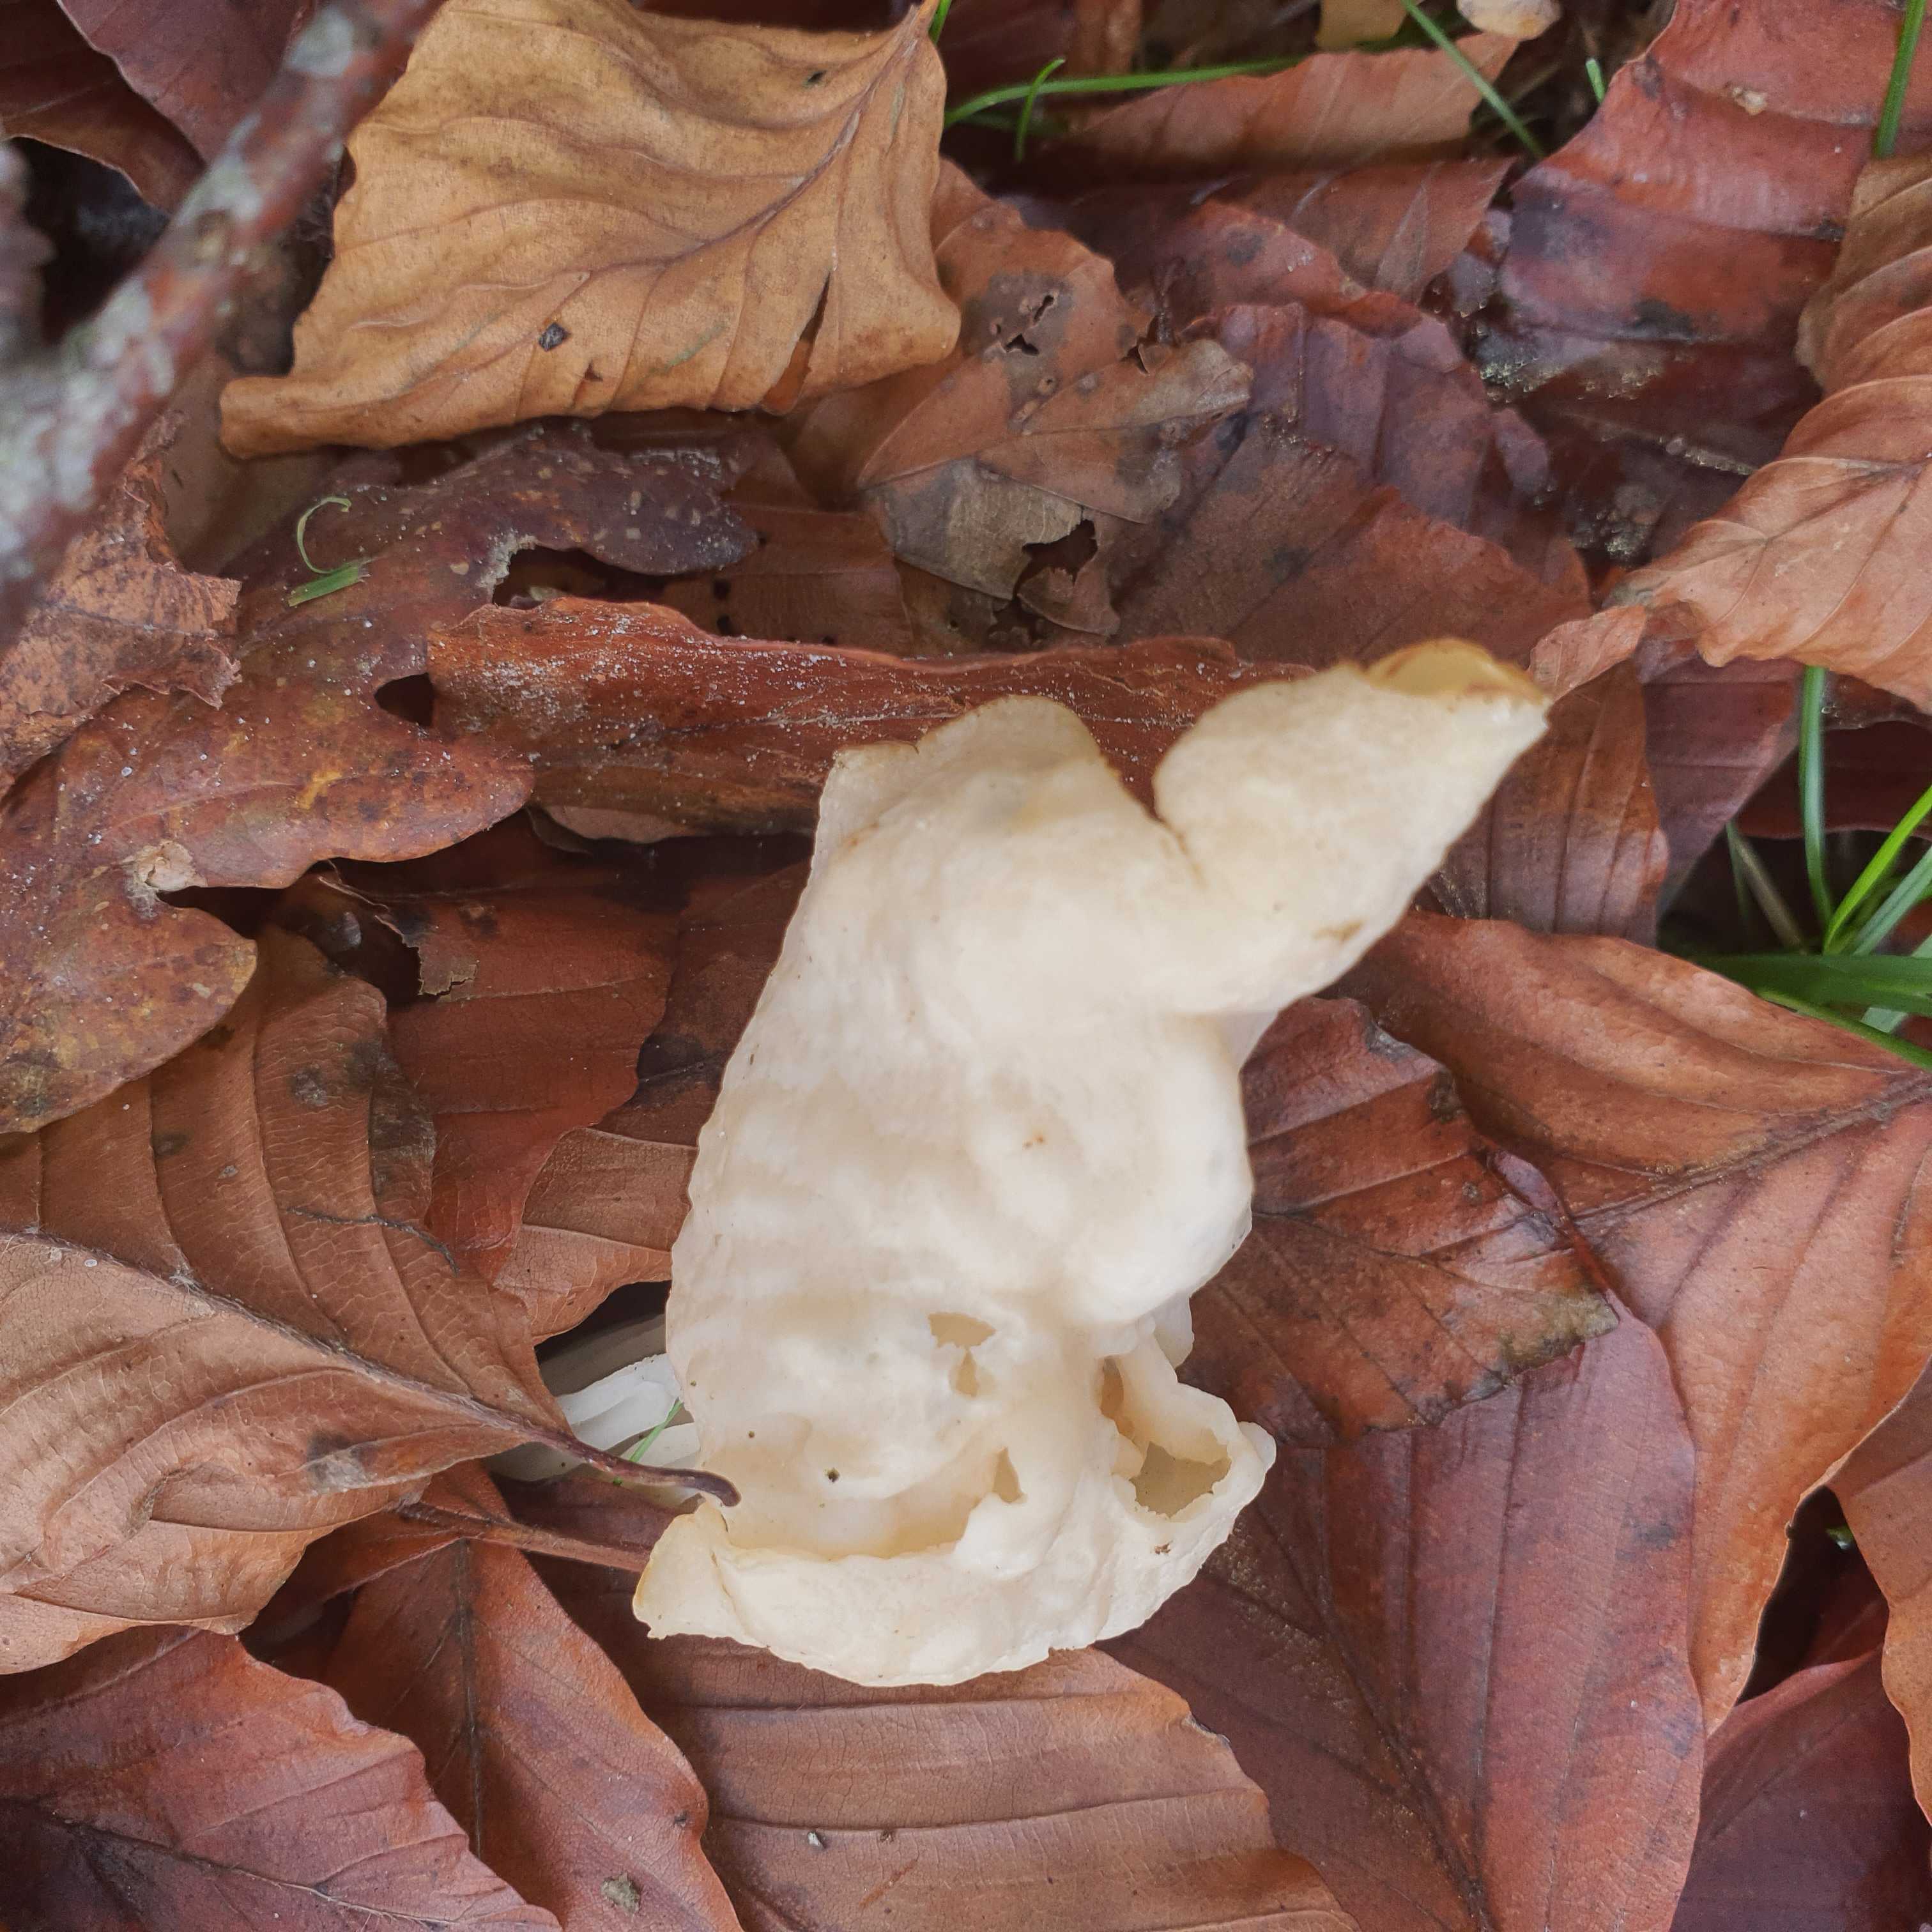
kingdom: Fungi
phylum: Ascomycota
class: Pezizomycetes
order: Pezizales
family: Helvellaceae
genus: Helvella
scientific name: Helvella crispa
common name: kruset foldhat
